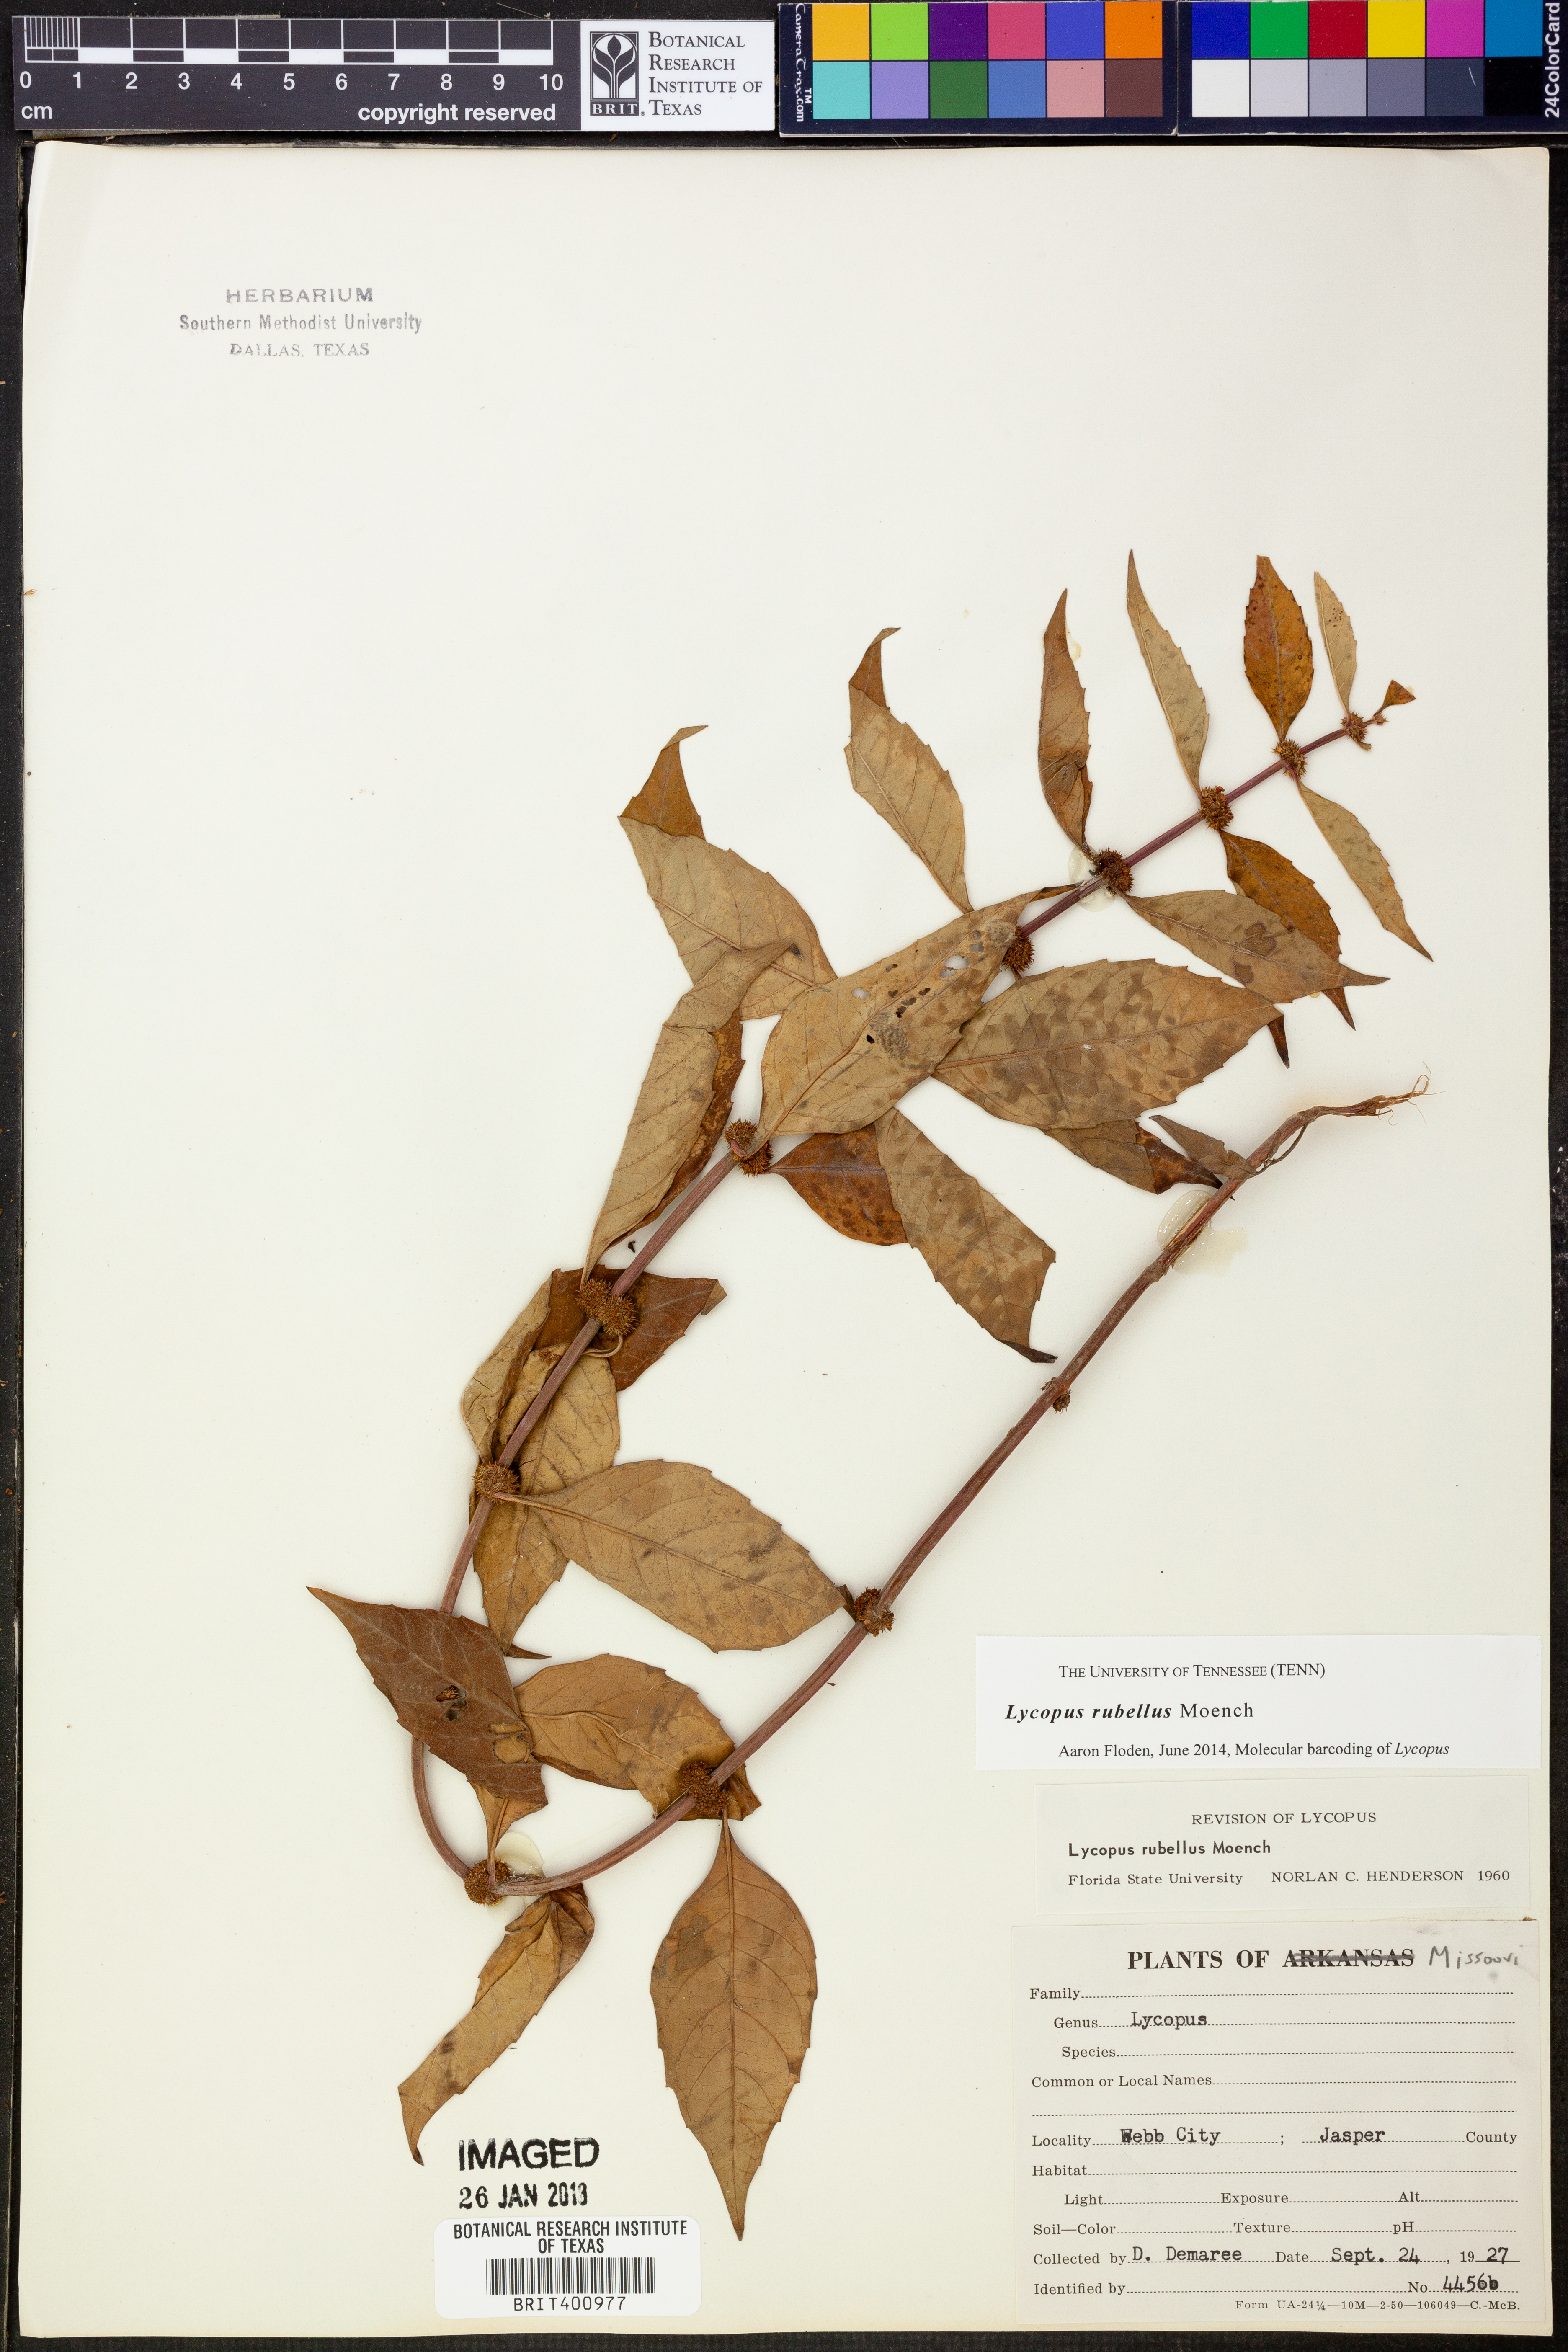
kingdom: Plantae
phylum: Tracheophyta
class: Magnoliopsida
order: Lamiales
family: Lamiaceae
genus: Lycopus
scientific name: Lycopus rubellus
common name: Stalked bugleweed
